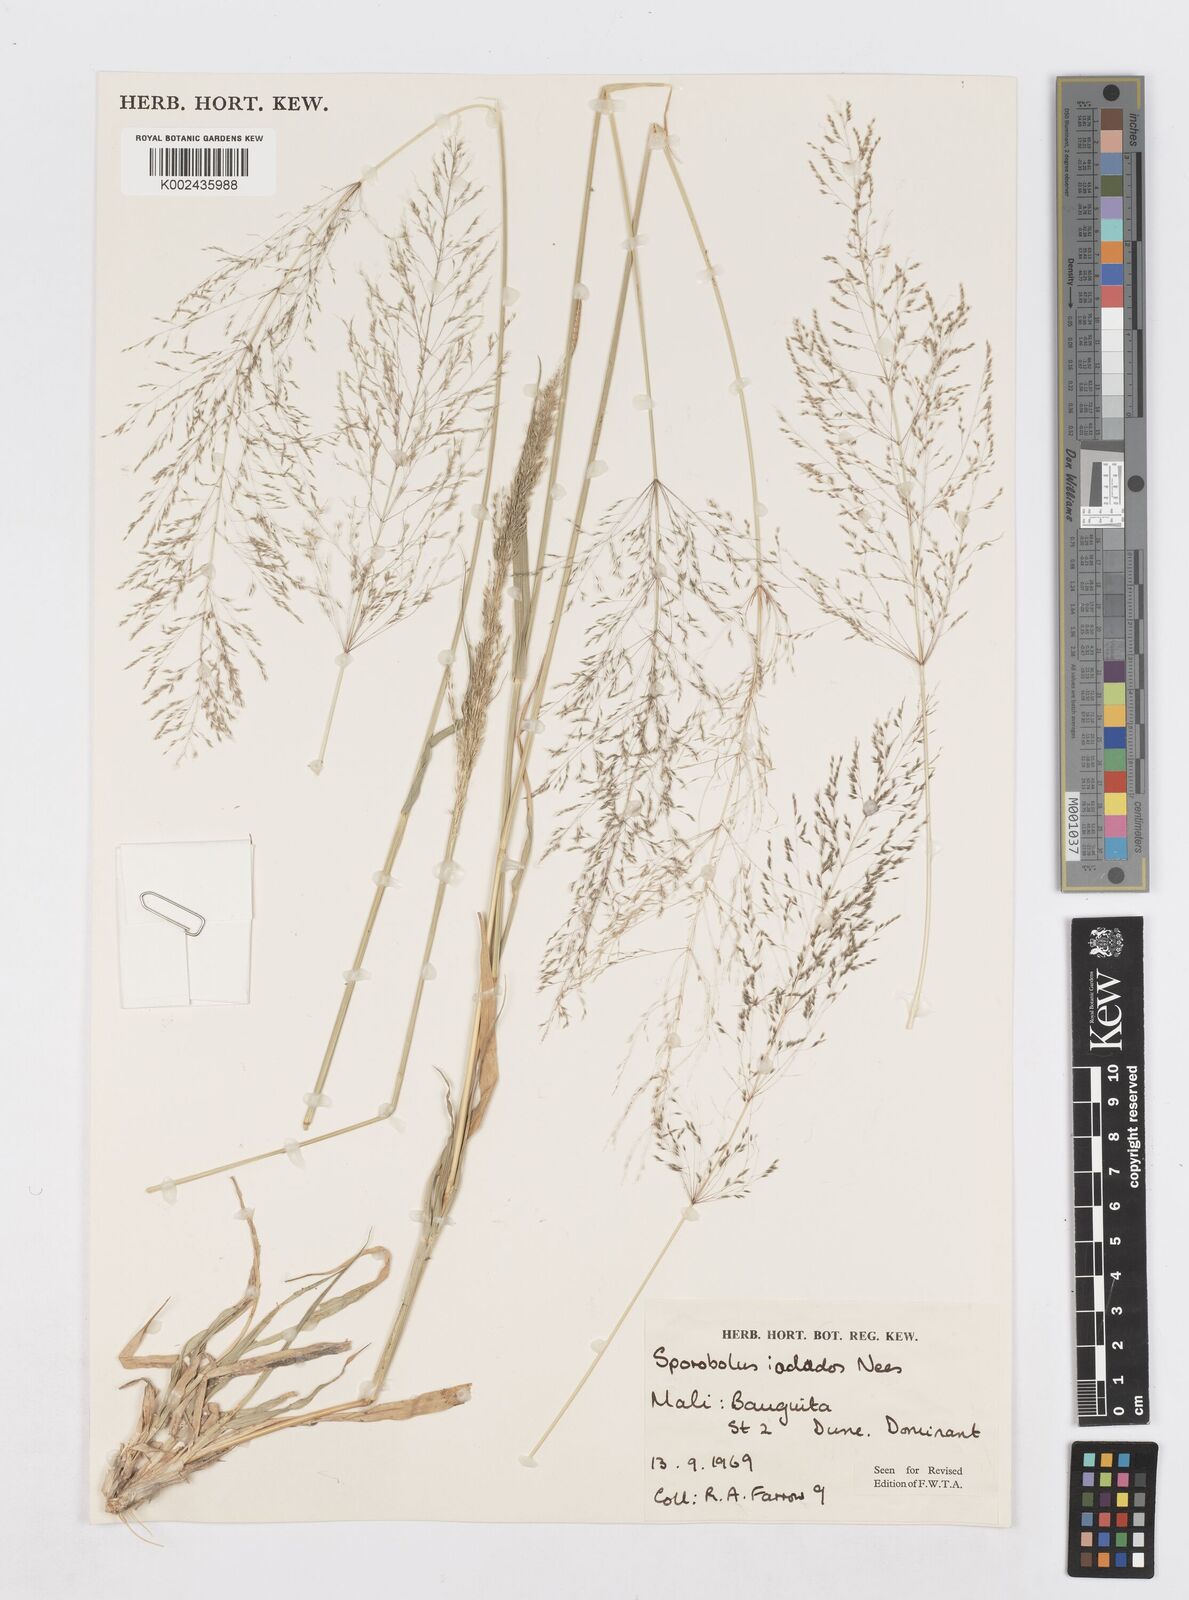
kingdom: Plantae
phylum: Tracheophyta
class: Liliopsida
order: Poales
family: Poaceae
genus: Sporobolus
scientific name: Sporobolus ioclados
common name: Pan dropseed
